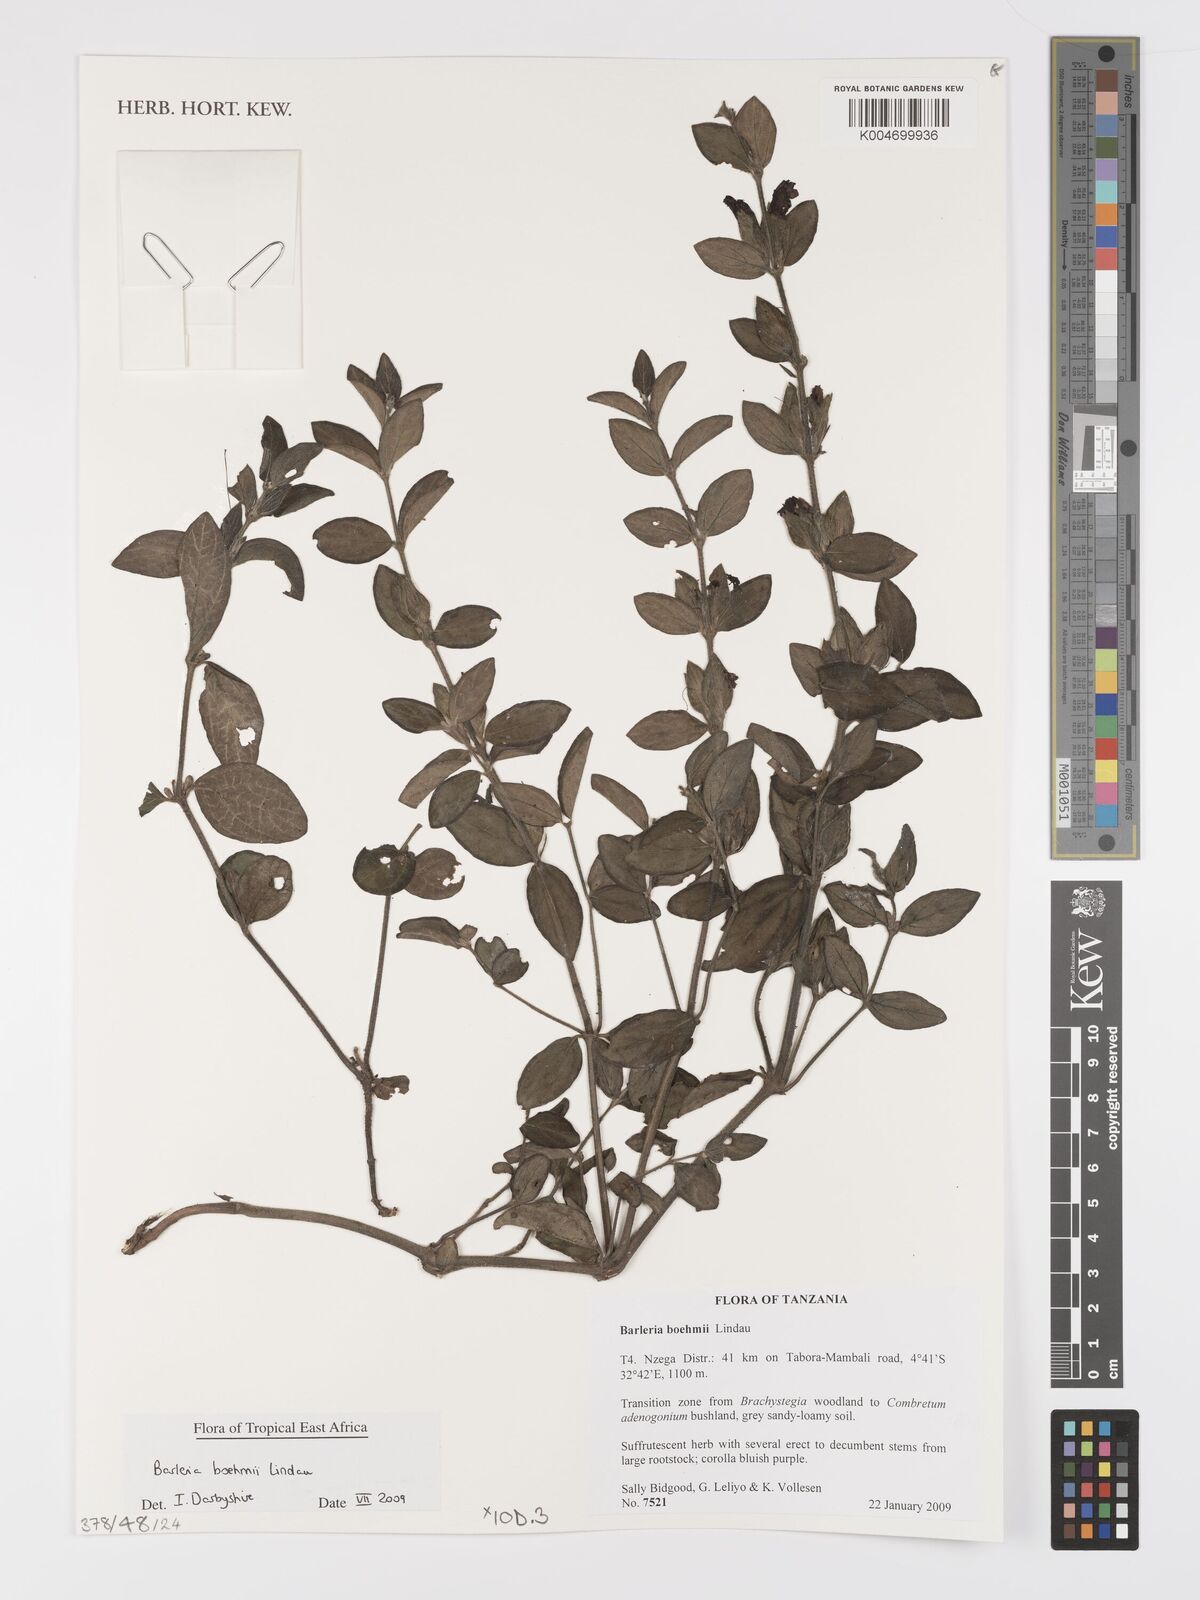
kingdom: Plantae
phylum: Tracheophyta
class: Magnoliopsida
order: Lamiales
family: Acanthaceae
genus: Barleria
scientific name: Barleria boehmii
